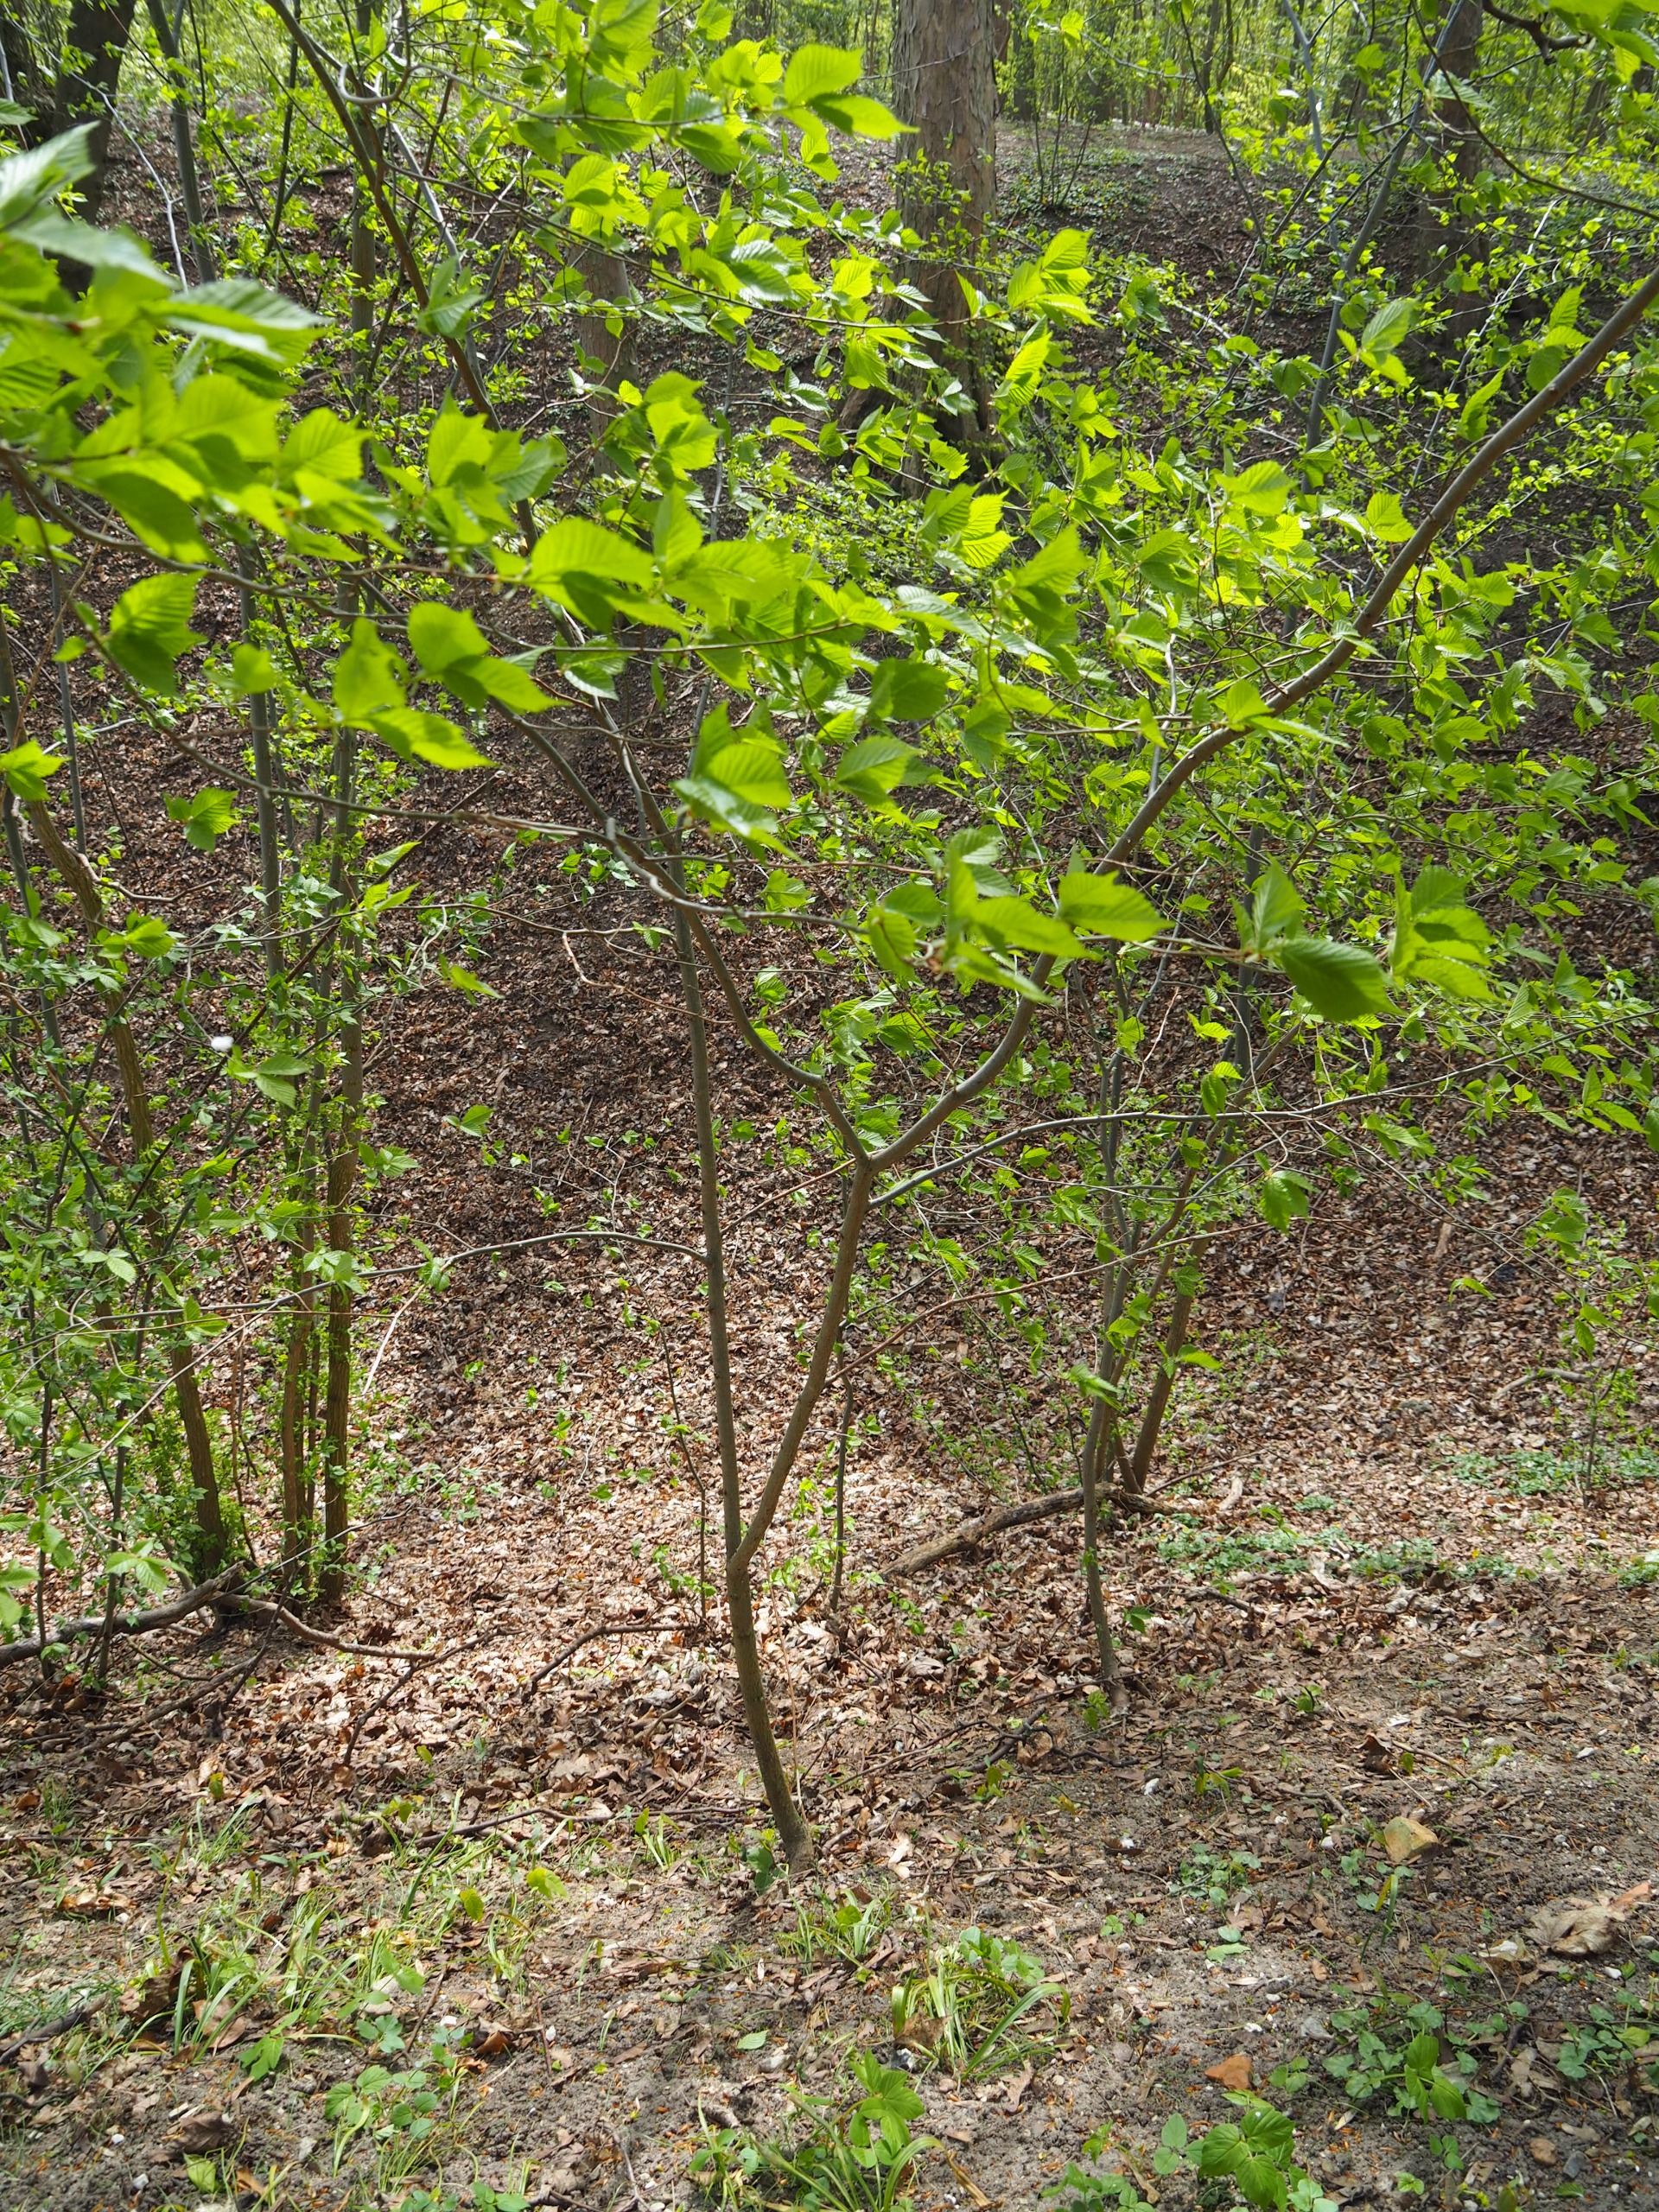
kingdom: Plantae
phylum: Tracheophyta
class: Magnoliopsida
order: Rosales
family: Ulmaceae
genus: Ulmus
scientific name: Ulmus glabra
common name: Skov-elm/storbladet elm
